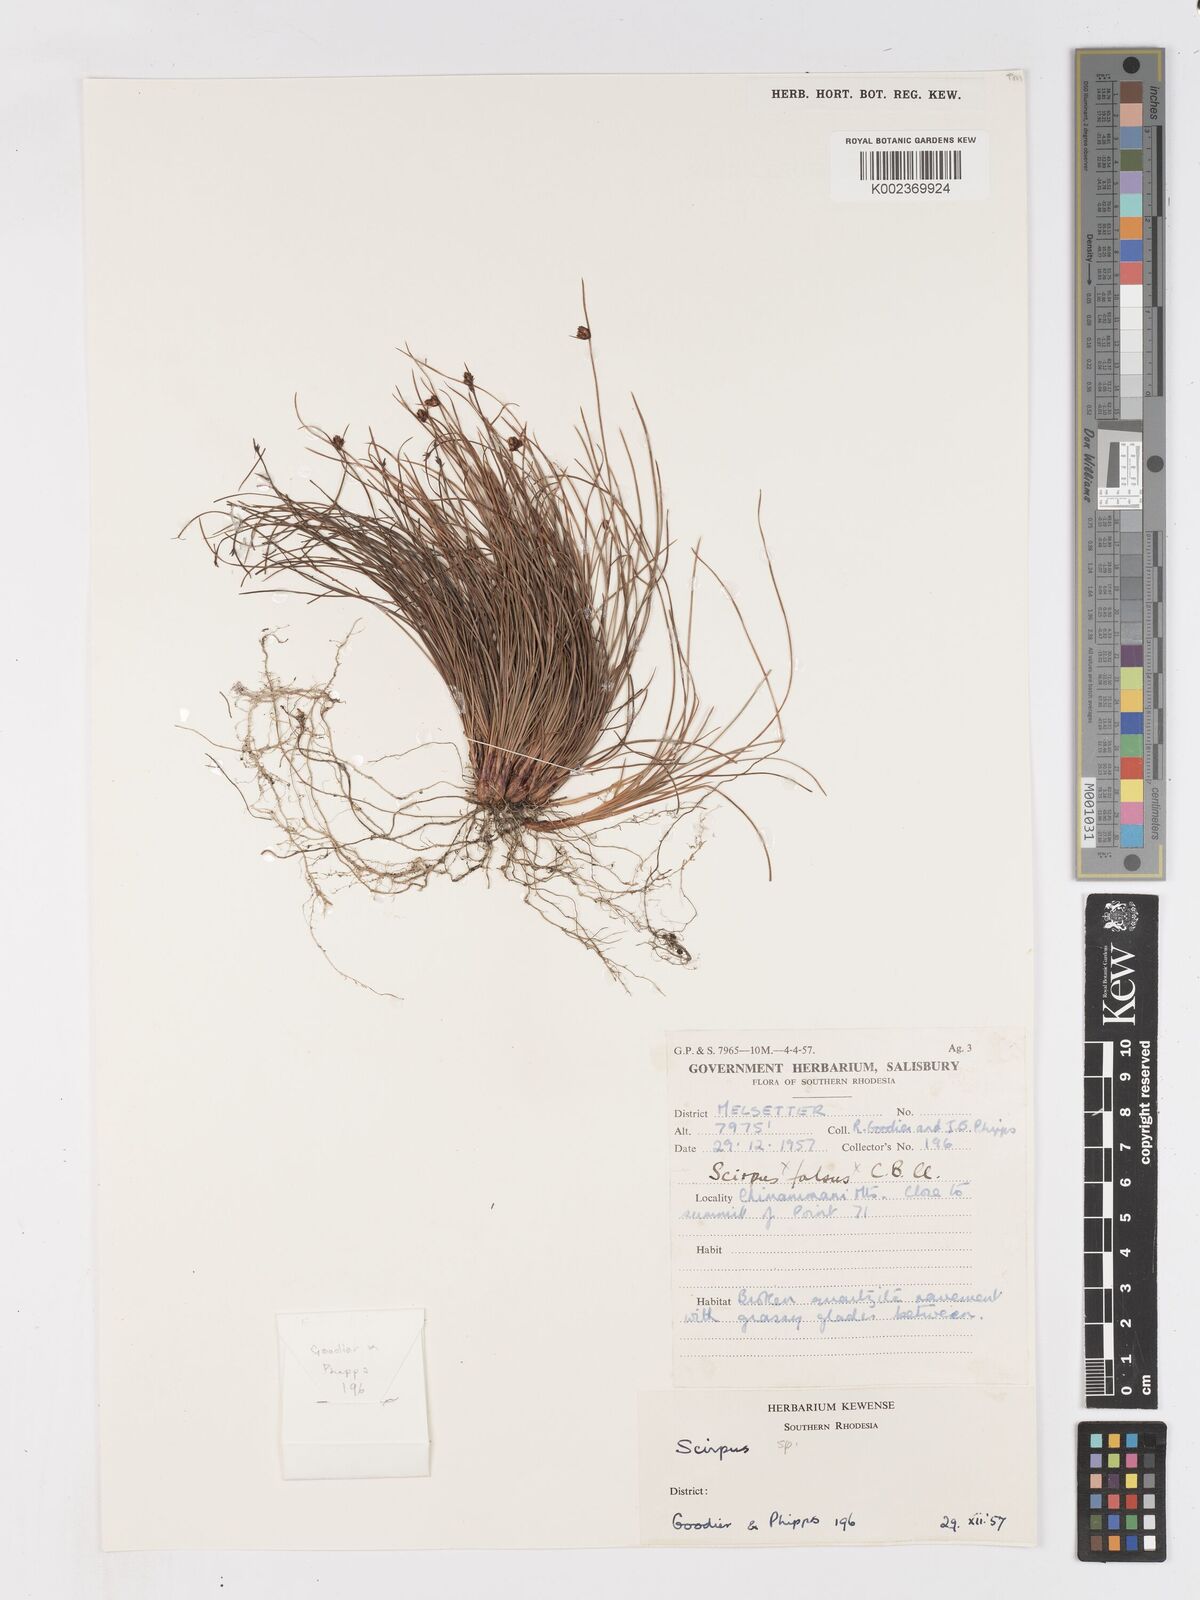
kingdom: Plantae
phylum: Tracheophyta
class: Liliopsida
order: Poales
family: Cyperaceae
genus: Ficinia
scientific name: Ficinia filiformis
